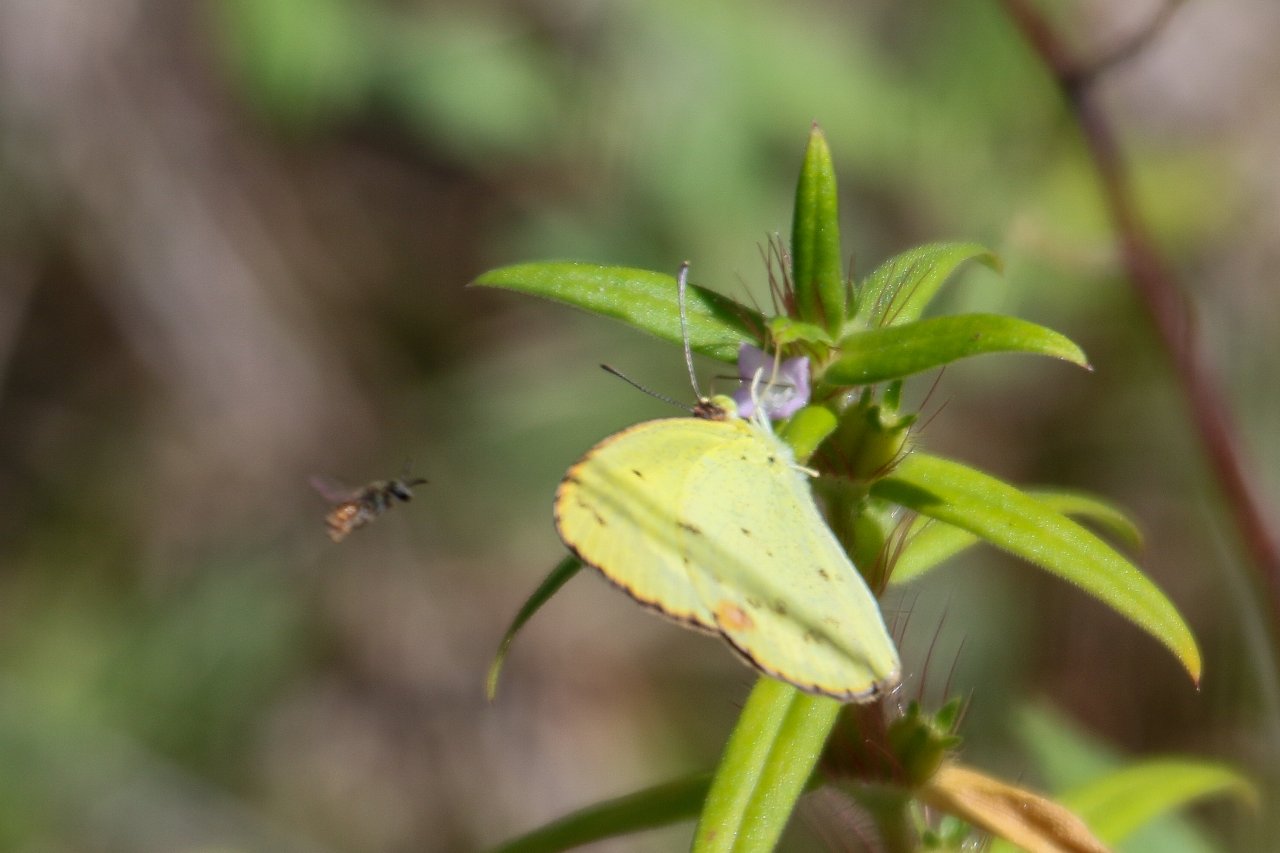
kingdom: Animalia
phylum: Arthropoda
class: Insecta
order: Lepidoptera
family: Pieridae
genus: Pyrisitia
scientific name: Pyrisitia lisa
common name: Little Yellow
